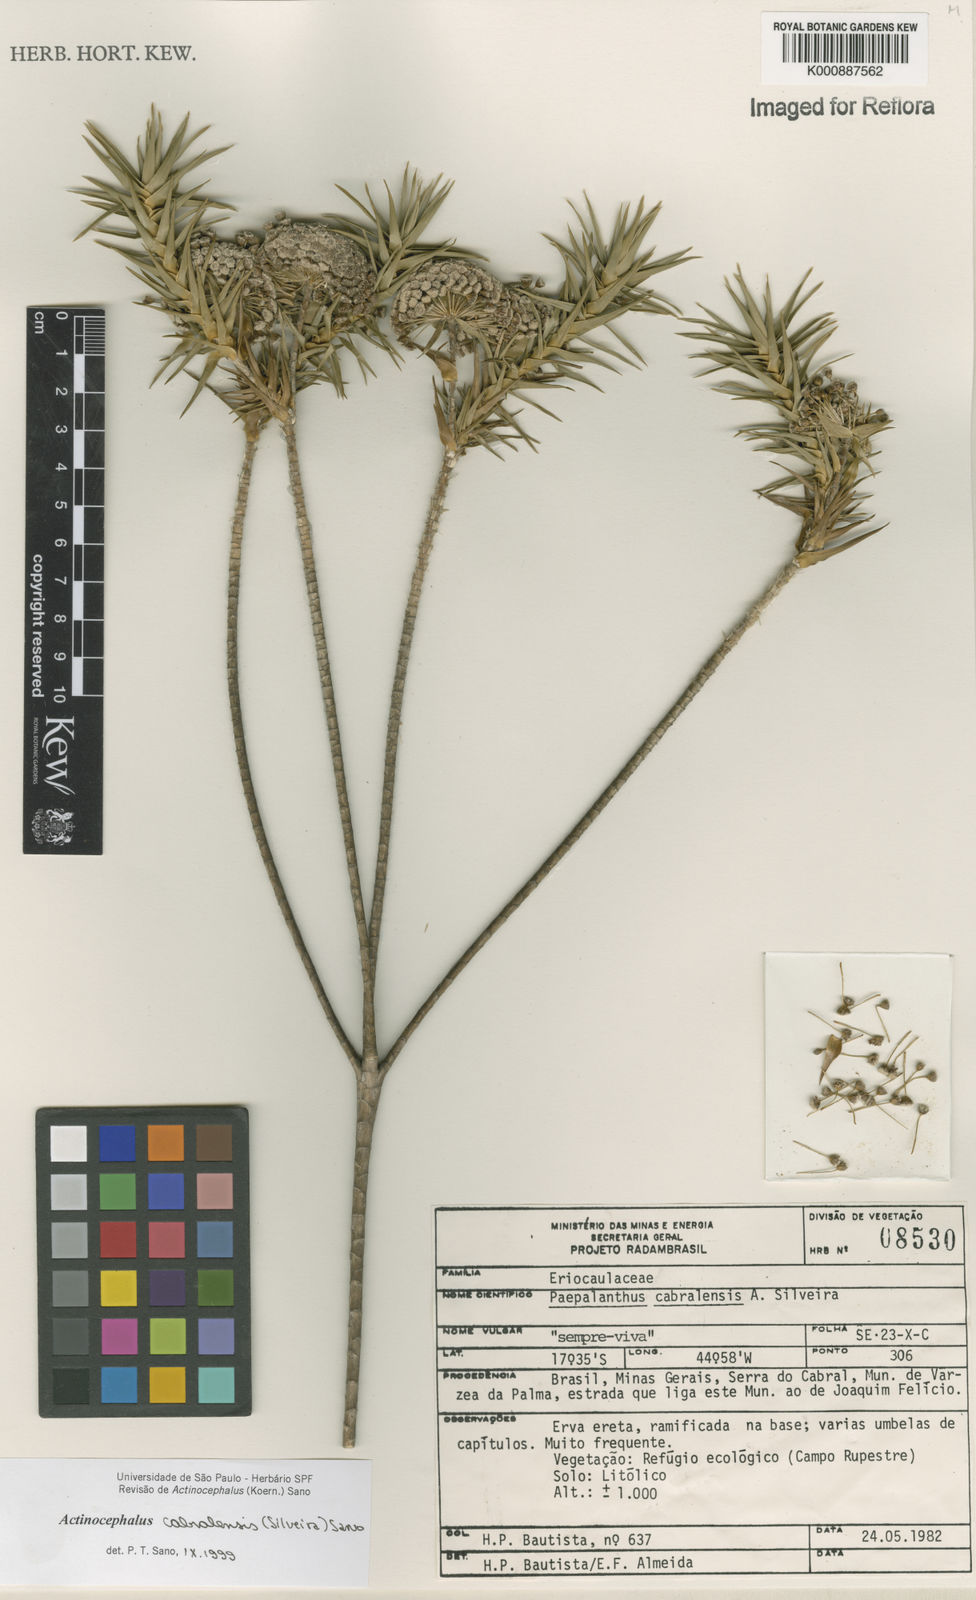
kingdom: Plantae
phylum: Tracheophyta
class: Liliopsida
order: Poales
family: Eriocaulaceae
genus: Paepalanthus
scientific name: Paepalanthus cabralensis
